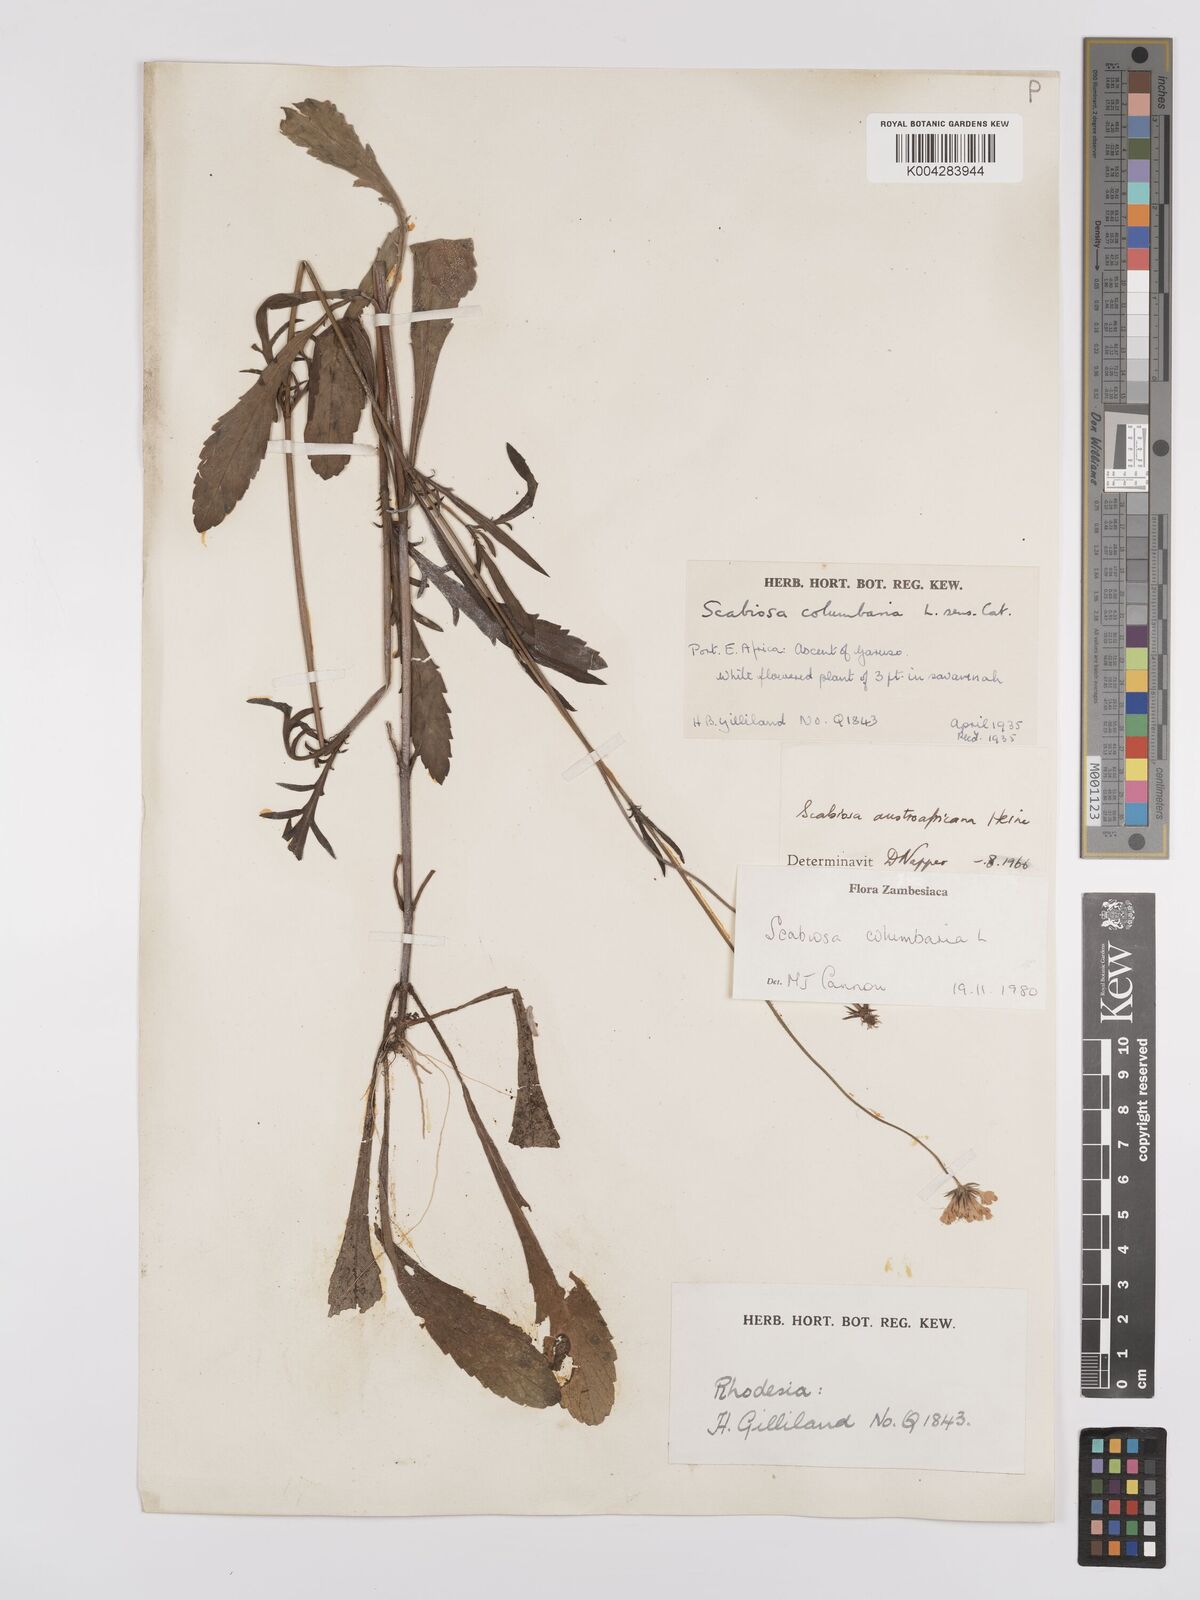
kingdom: Plantae
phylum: Tracheophyta
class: Magnoliopsida
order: Dipsacales
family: Caprifoliaceae
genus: Scabiosa
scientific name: Scabiosa austroafricana
